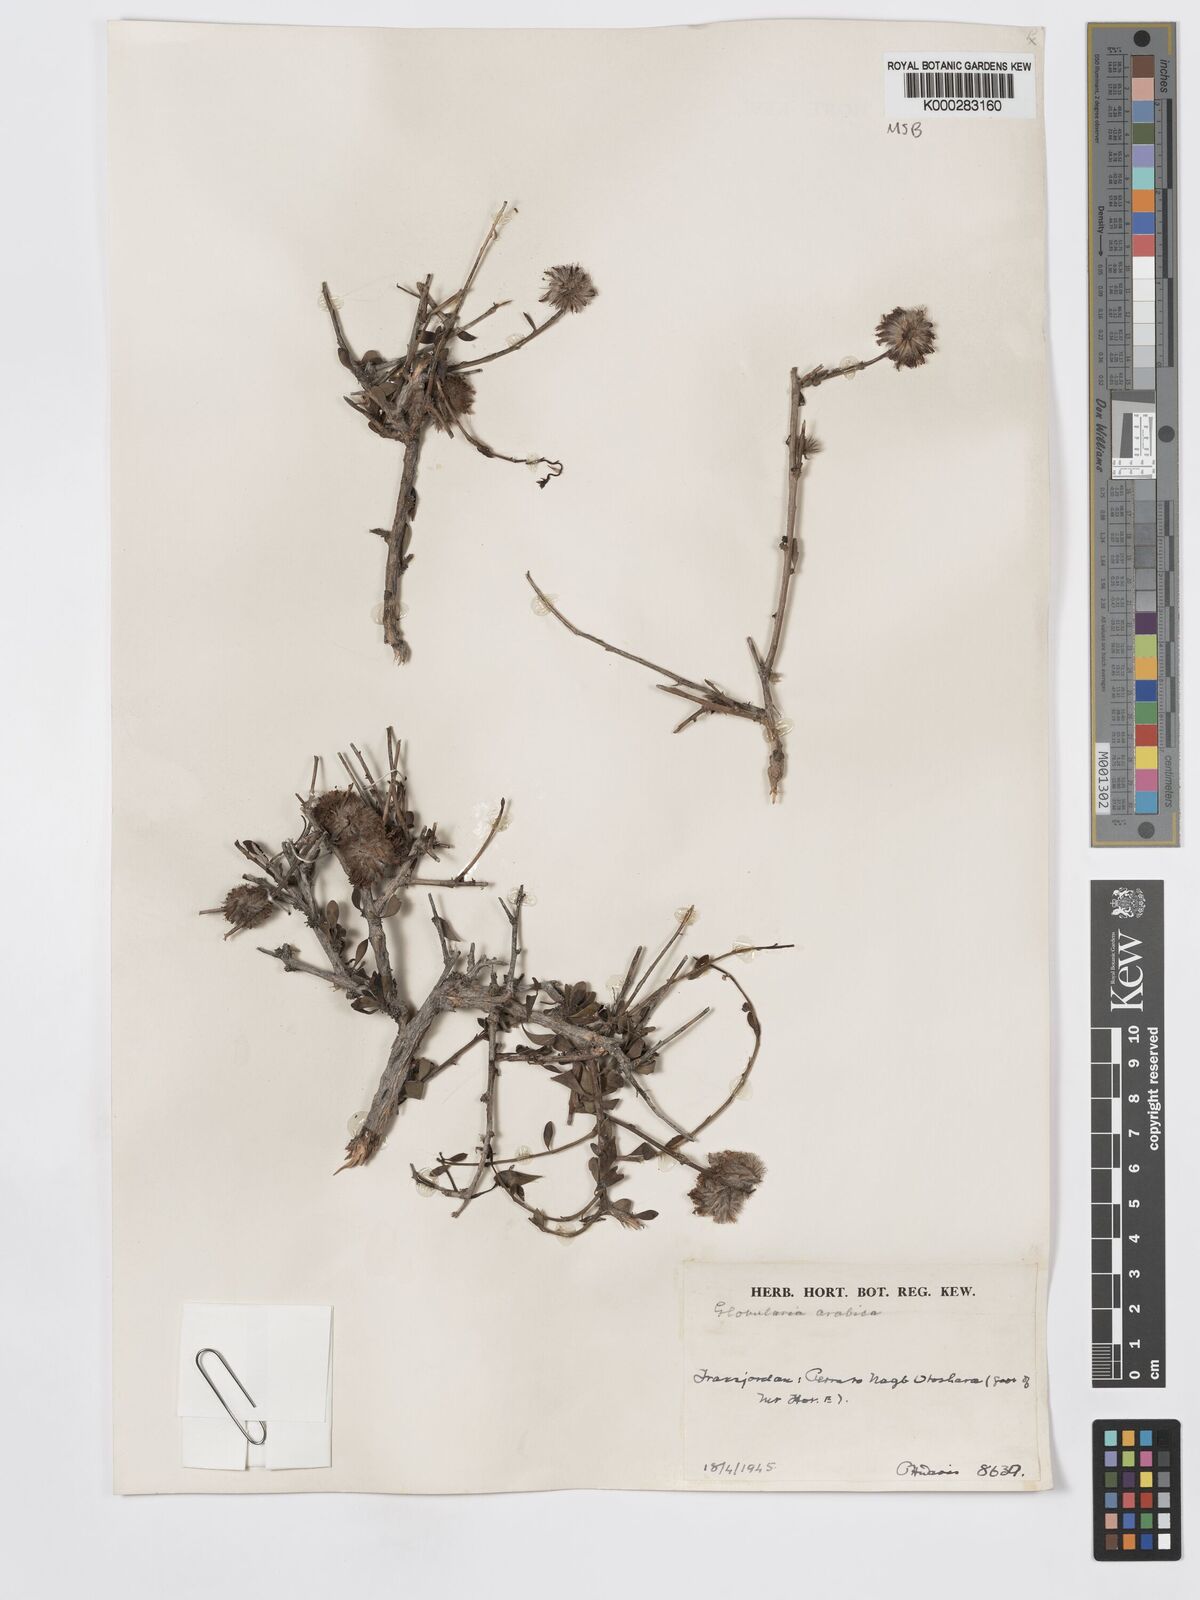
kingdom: Plantae
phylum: Tracheophyta
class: Magnoliopsida
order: Lamiales
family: Plantaginaceae
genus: Globularia
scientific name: Globularia arabica
